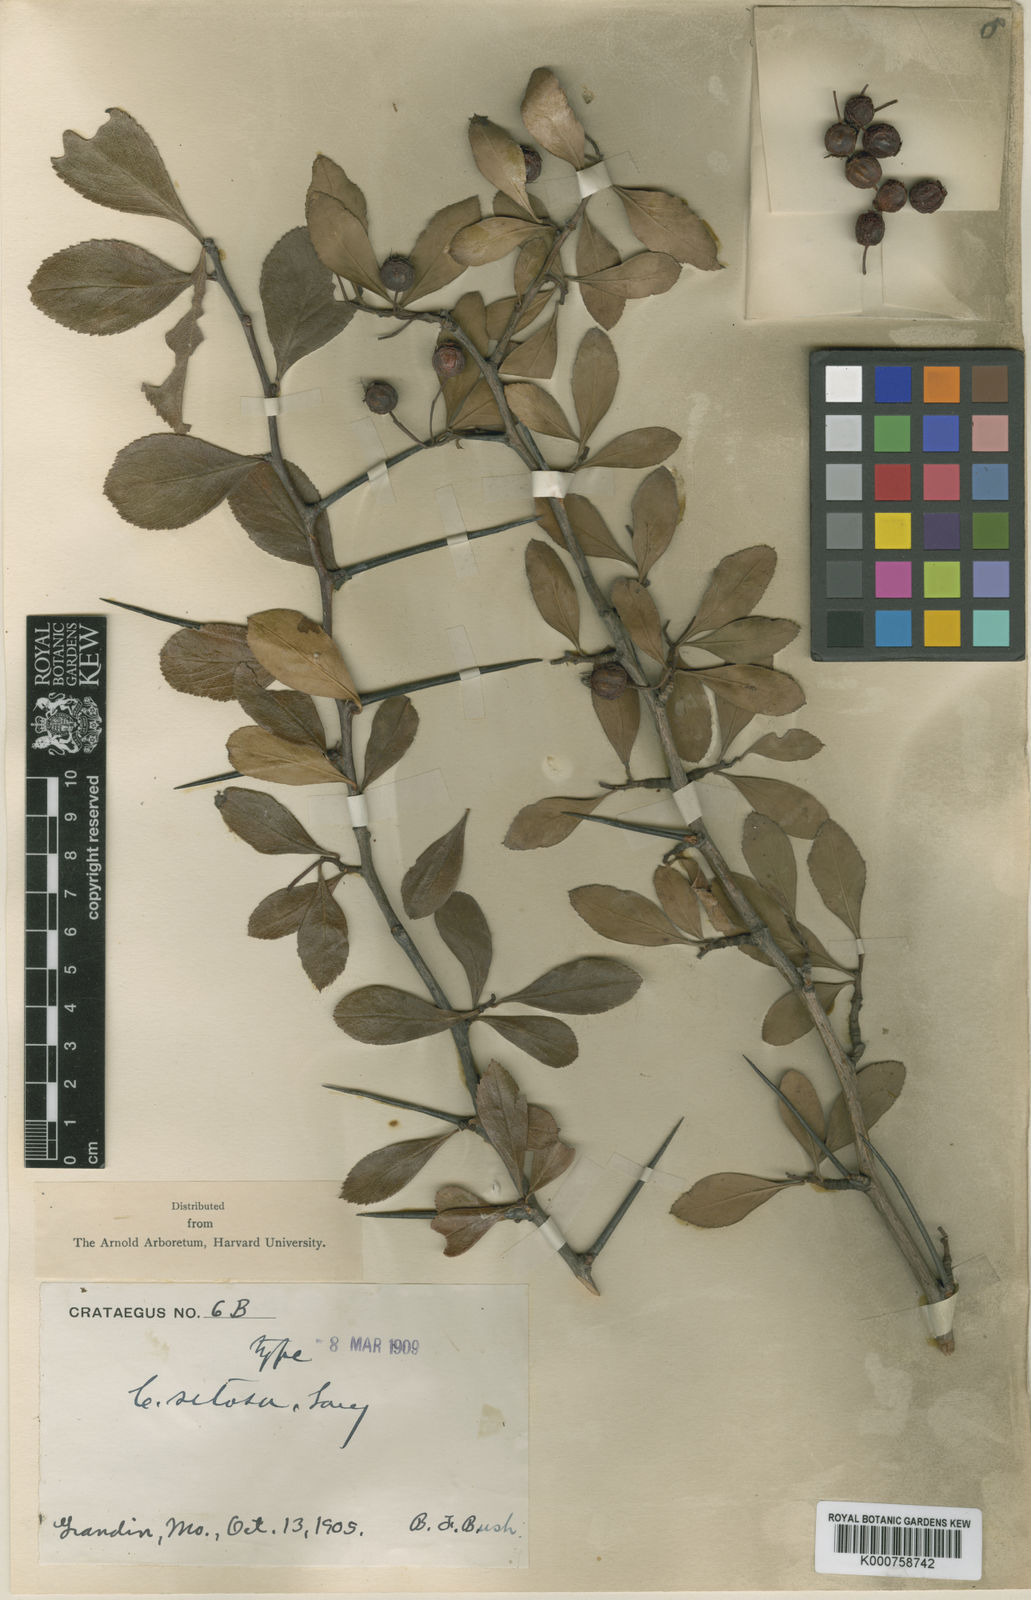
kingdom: Plantae
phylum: Tracheophyta
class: Magnoliopsida
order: Rosales
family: Rosaceae
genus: Crataegus
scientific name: Crataegus crus-galli
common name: Cockspurthorn
